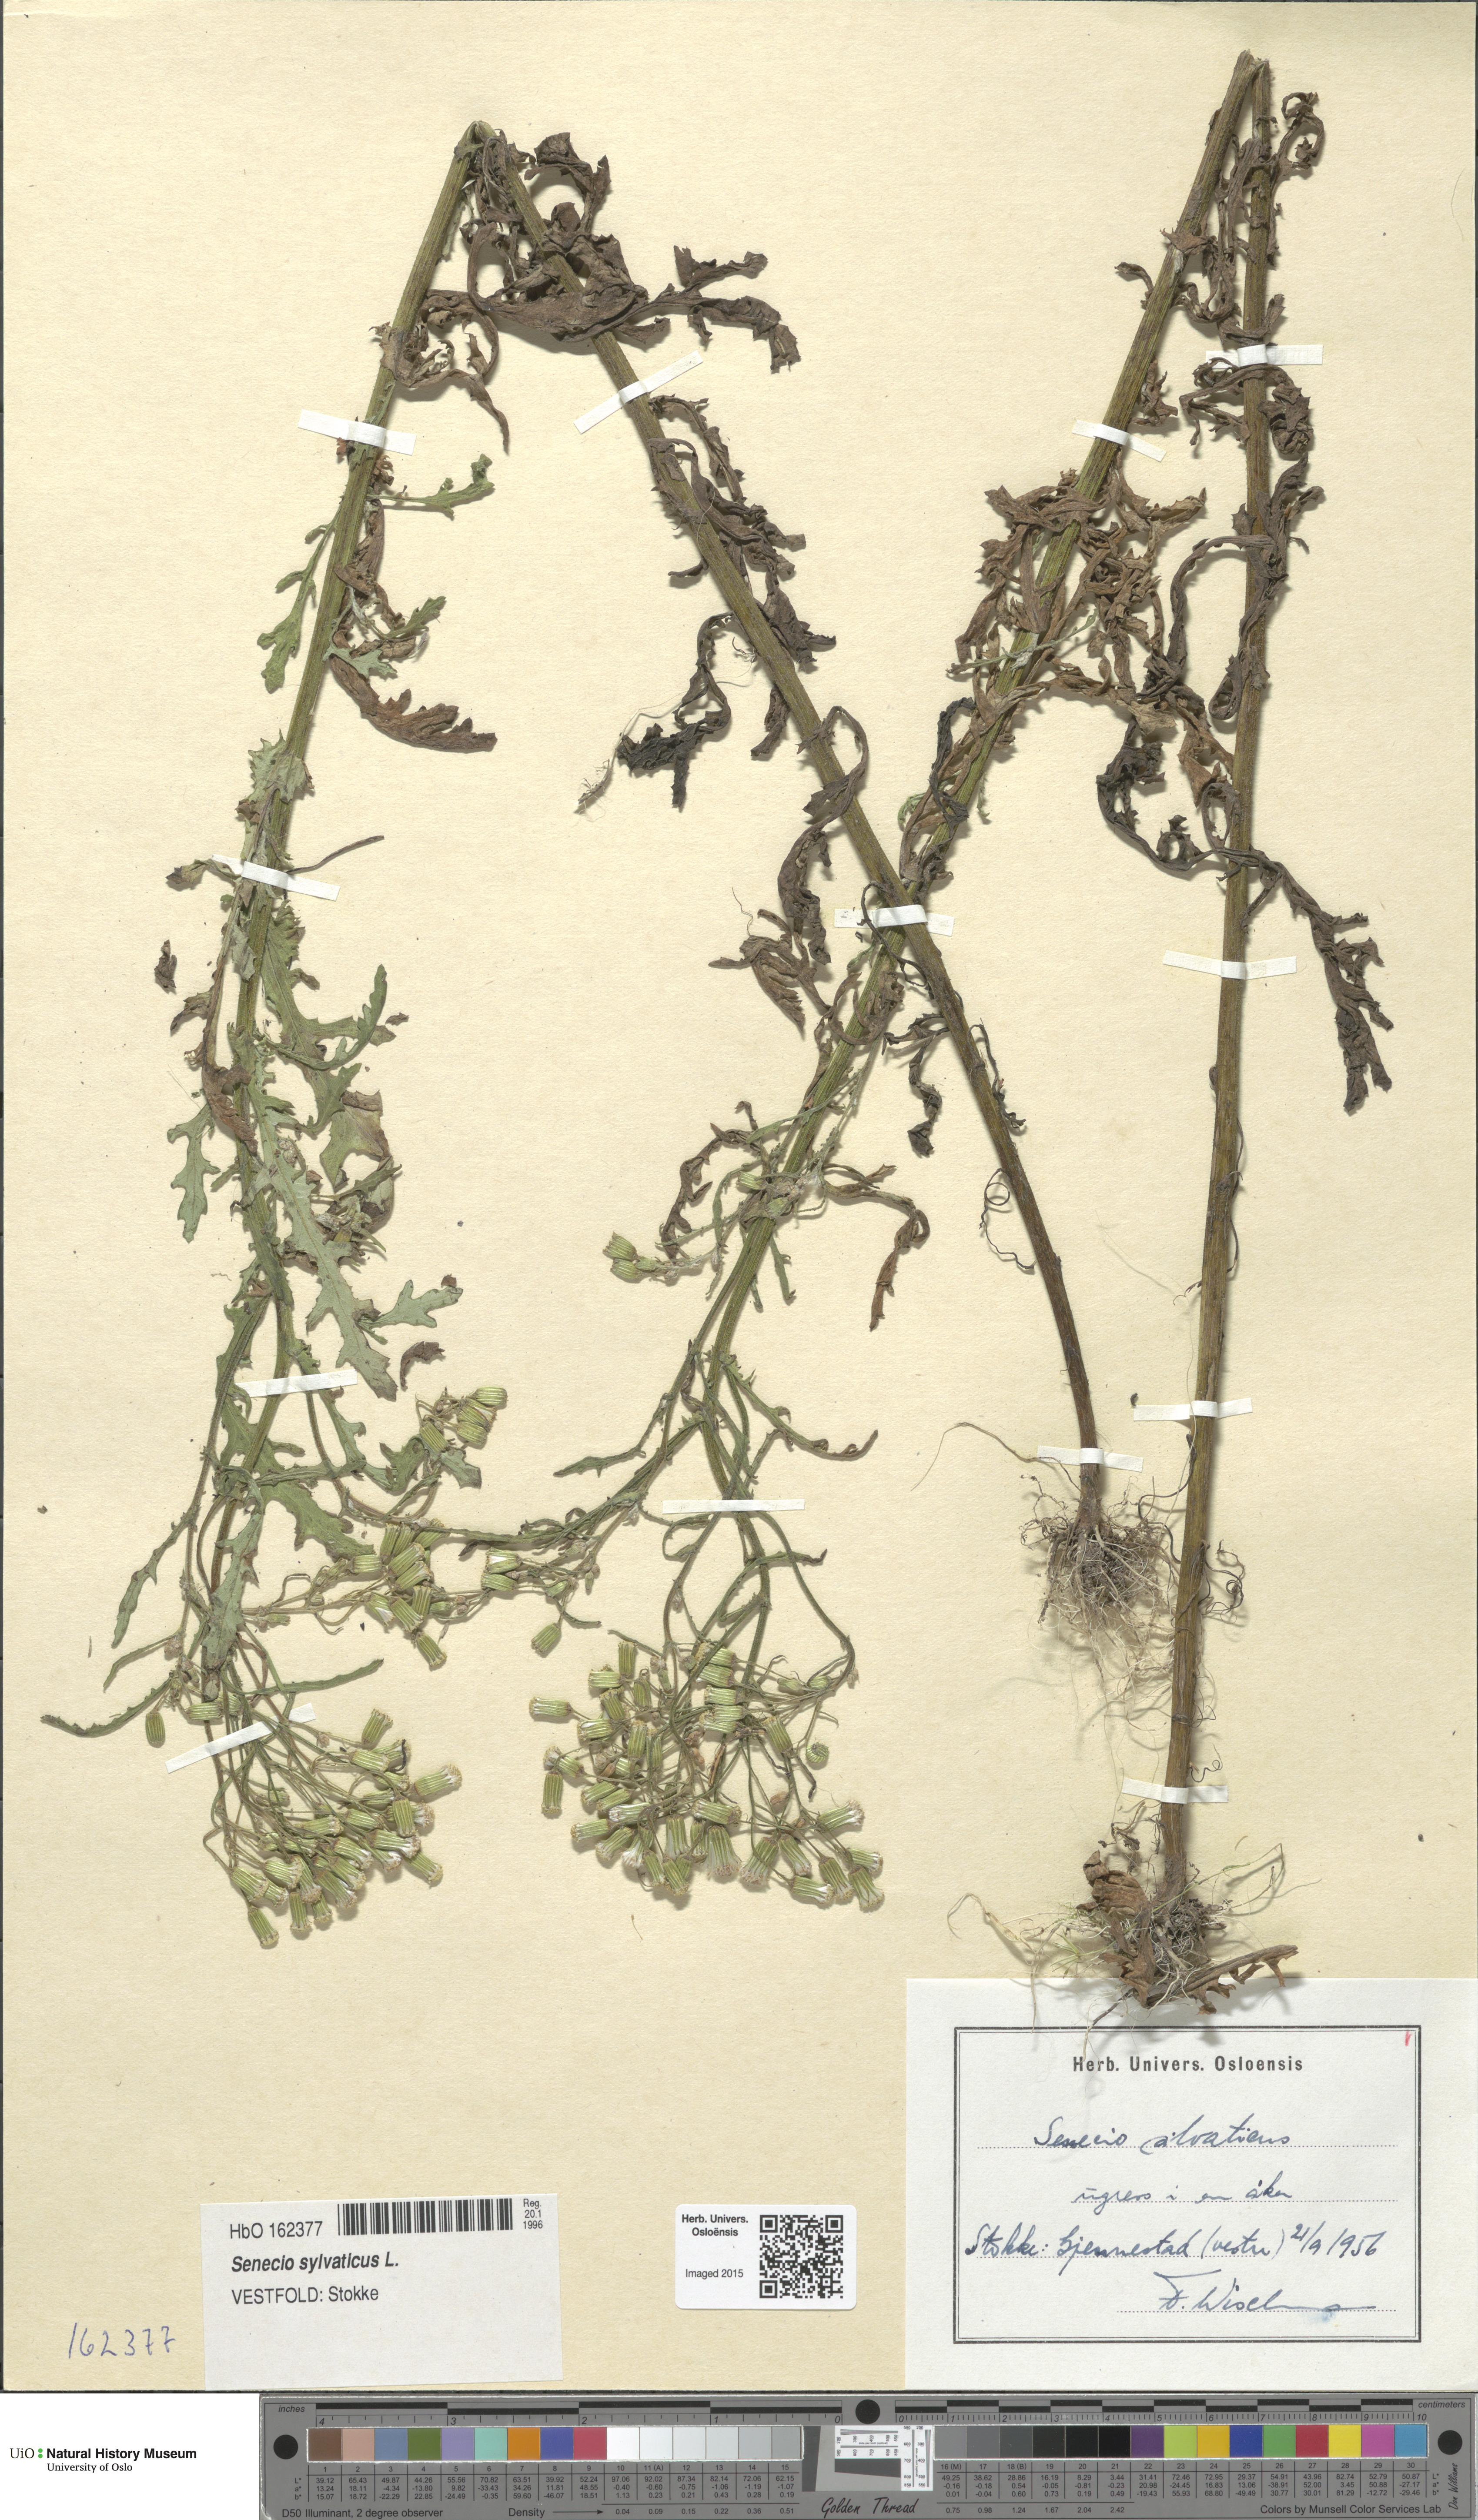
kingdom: Plantae
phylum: Tracheophyta
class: Magnoliopsida
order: Asterales
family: Asteraceae
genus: Senecio
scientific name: Senecio sylvaticus
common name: Woodland ragwort
